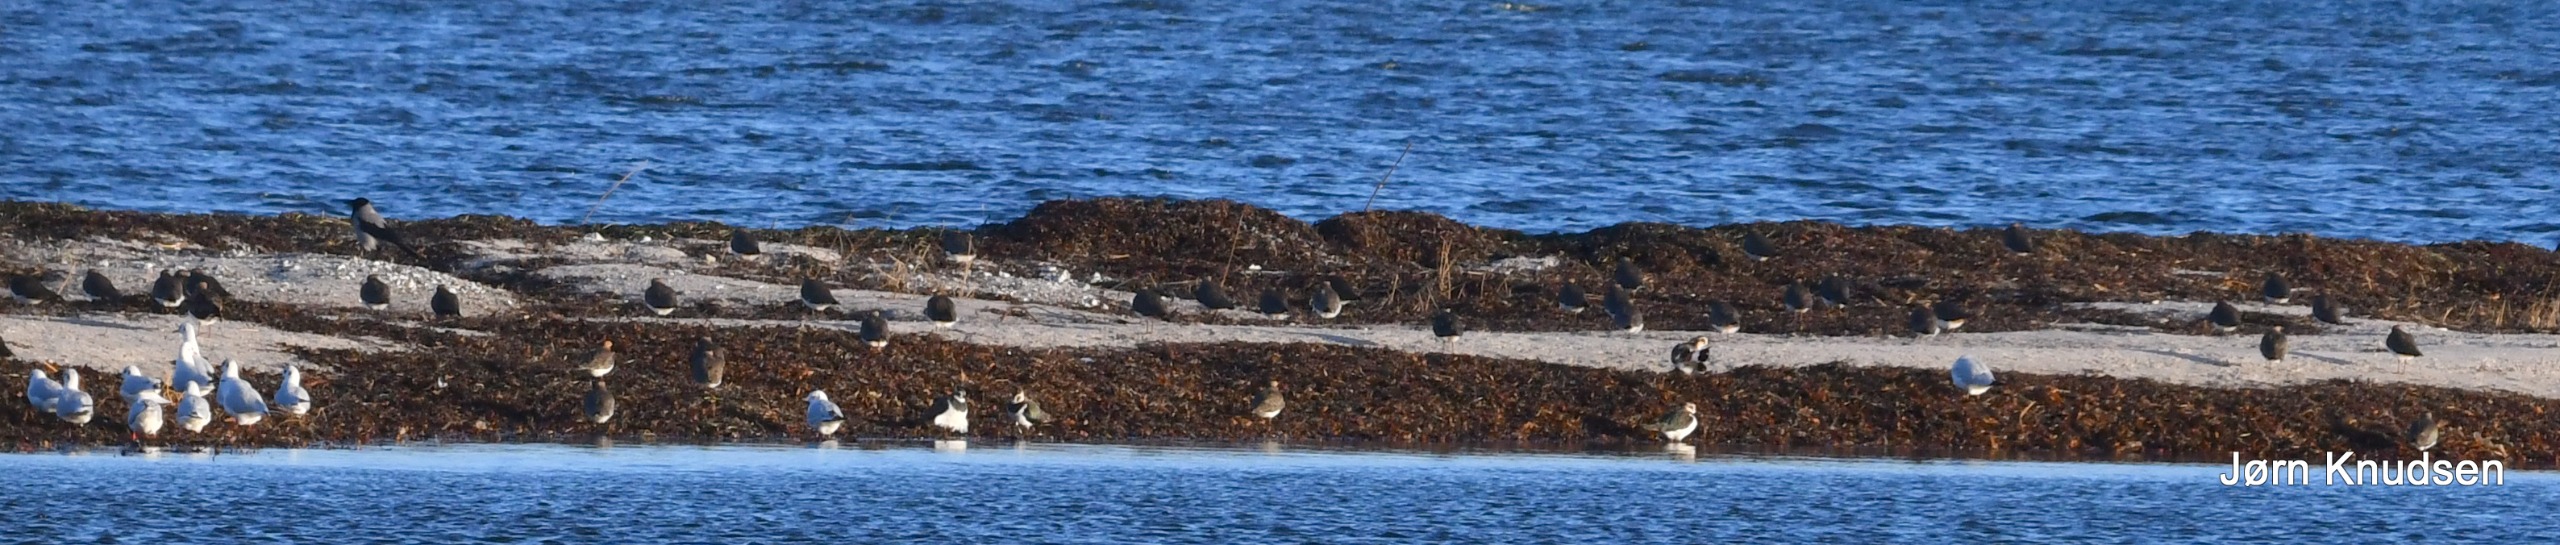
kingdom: Animalia
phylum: Chordata
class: Aves
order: Charadriiformes
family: Charadriidae
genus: Vanellus
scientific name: Vanellus vanellus
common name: Vibe
